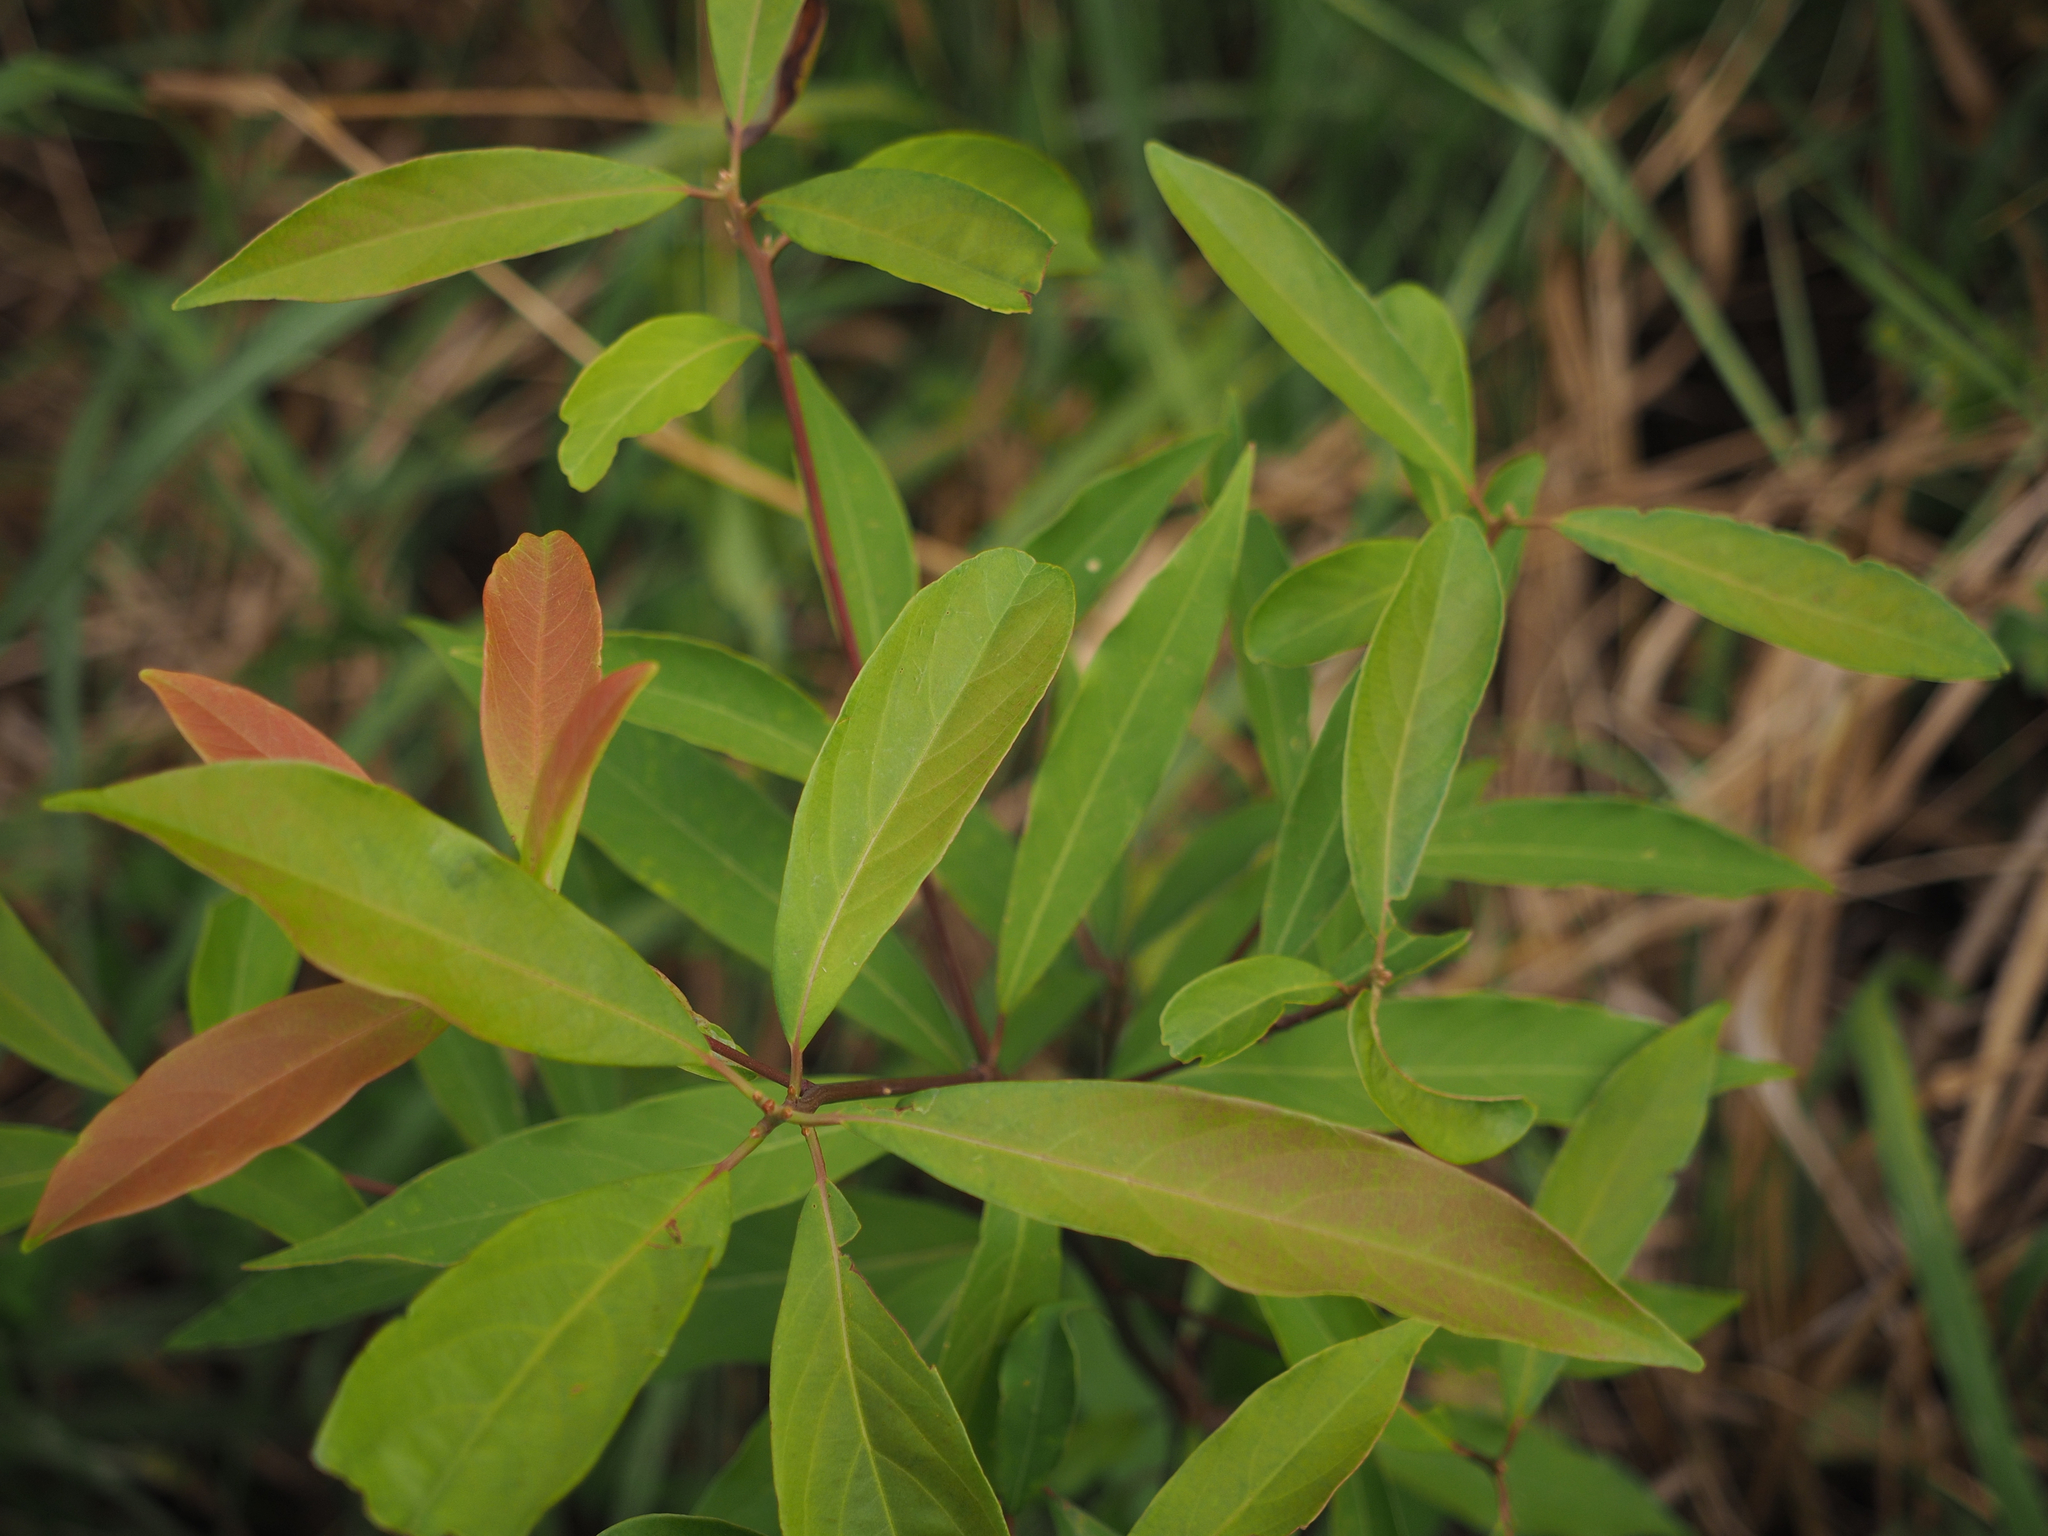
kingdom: Plantae
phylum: Tracheophyta
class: Magnoliopsida
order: Laurales
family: Lauraceae
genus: Machilus
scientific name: Machilus zuihoensis
